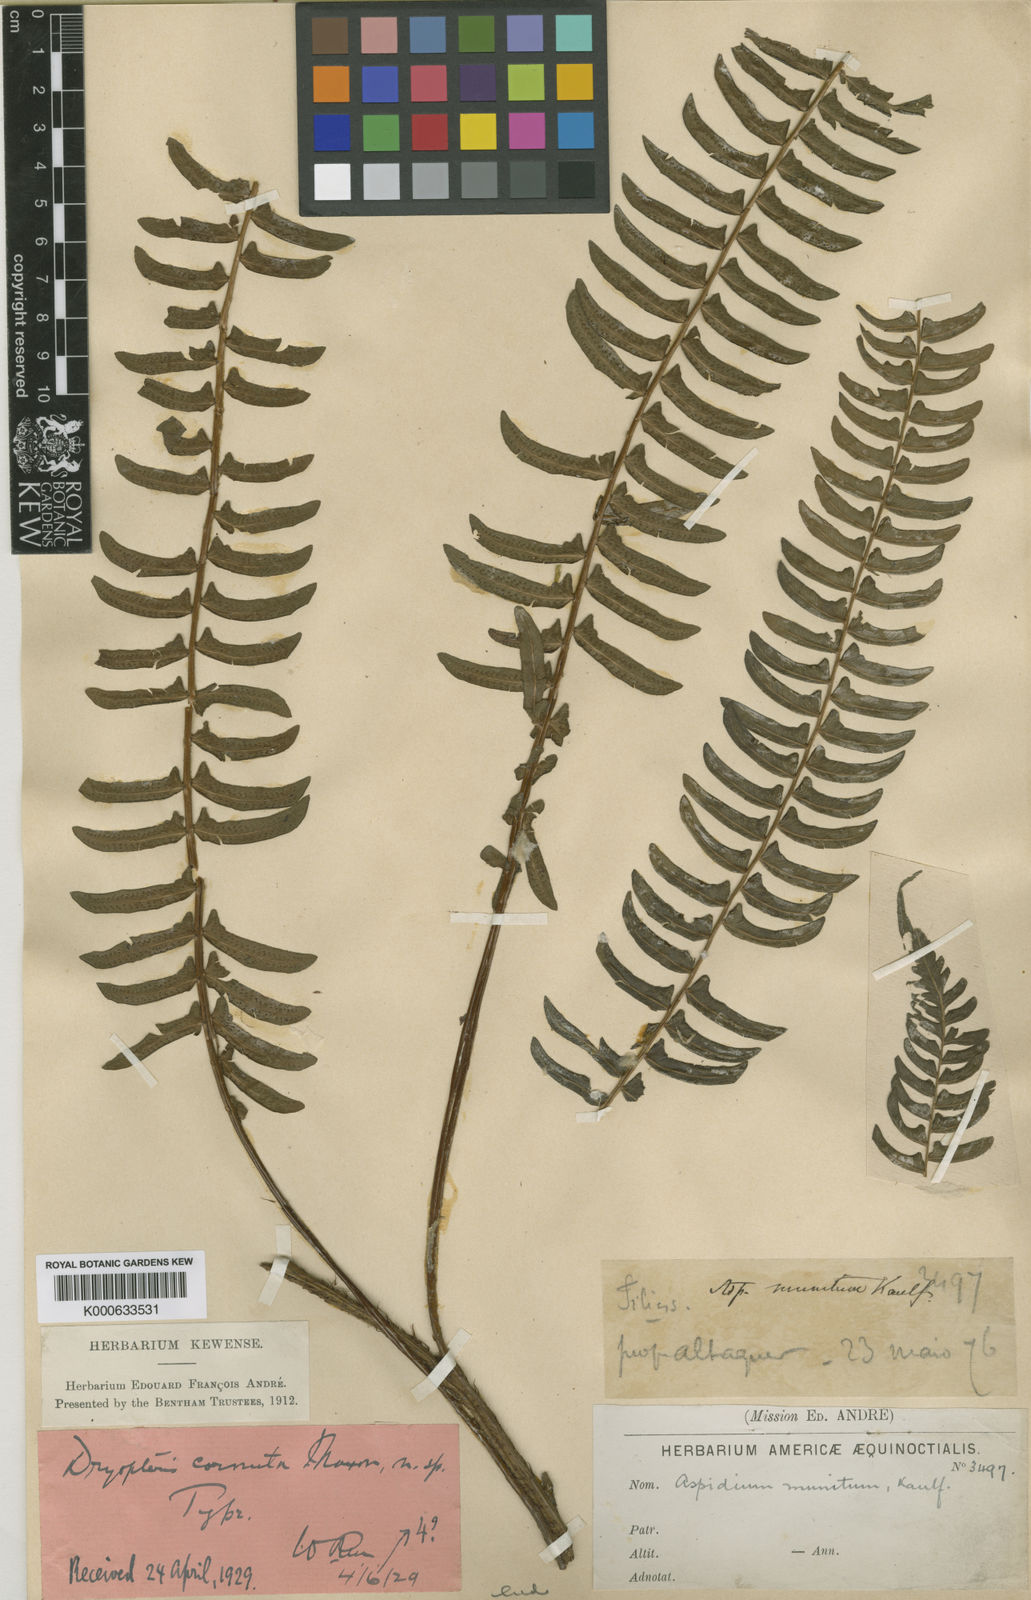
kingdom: Plantae
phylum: Tracheophyta
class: Polypodiopsida
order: Polypodiales
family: Thelypteridaceae
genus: Amauropelta
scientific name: Amauropelta cornuta
